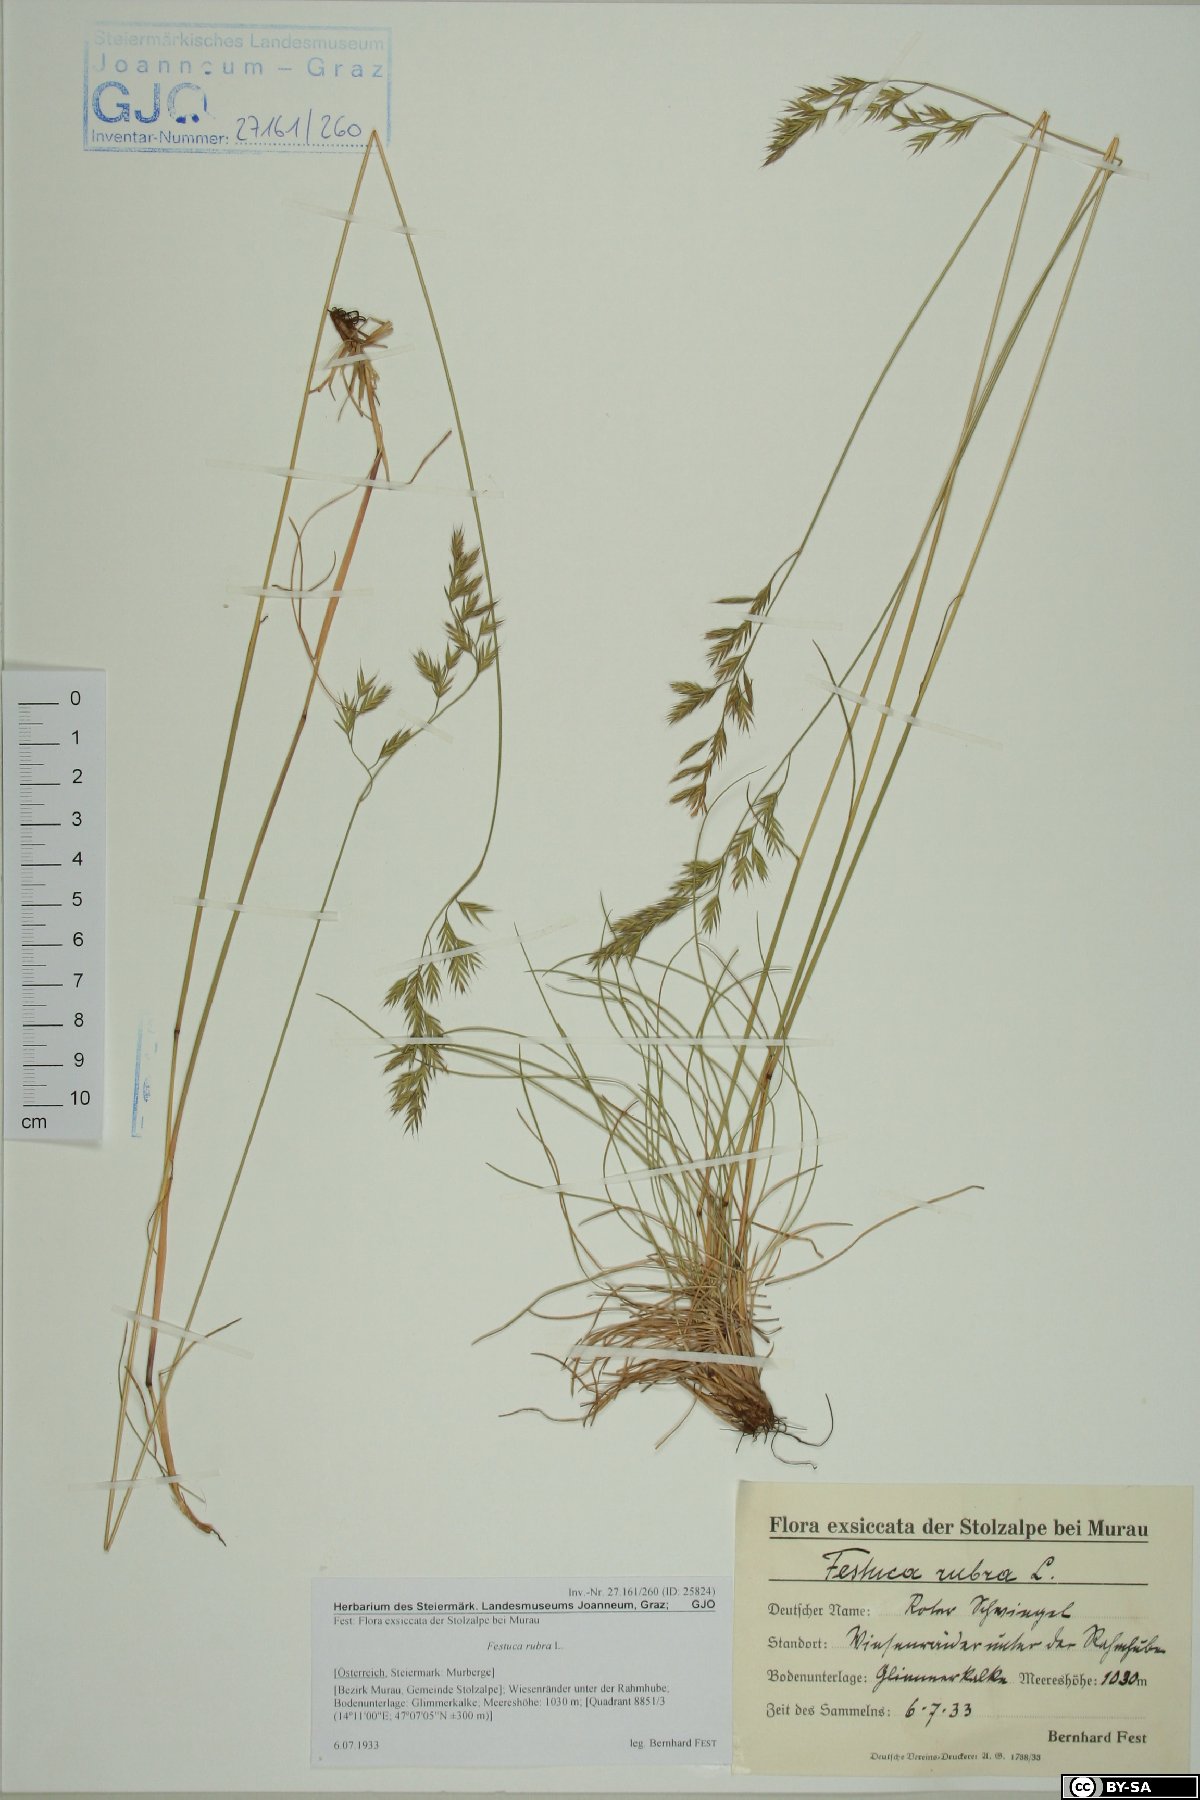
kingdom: Plantae
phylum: Tracheophyta
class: Liliopsida
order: Poales
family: Poaceae
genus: Festuca
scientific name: Festuca nigrescens
